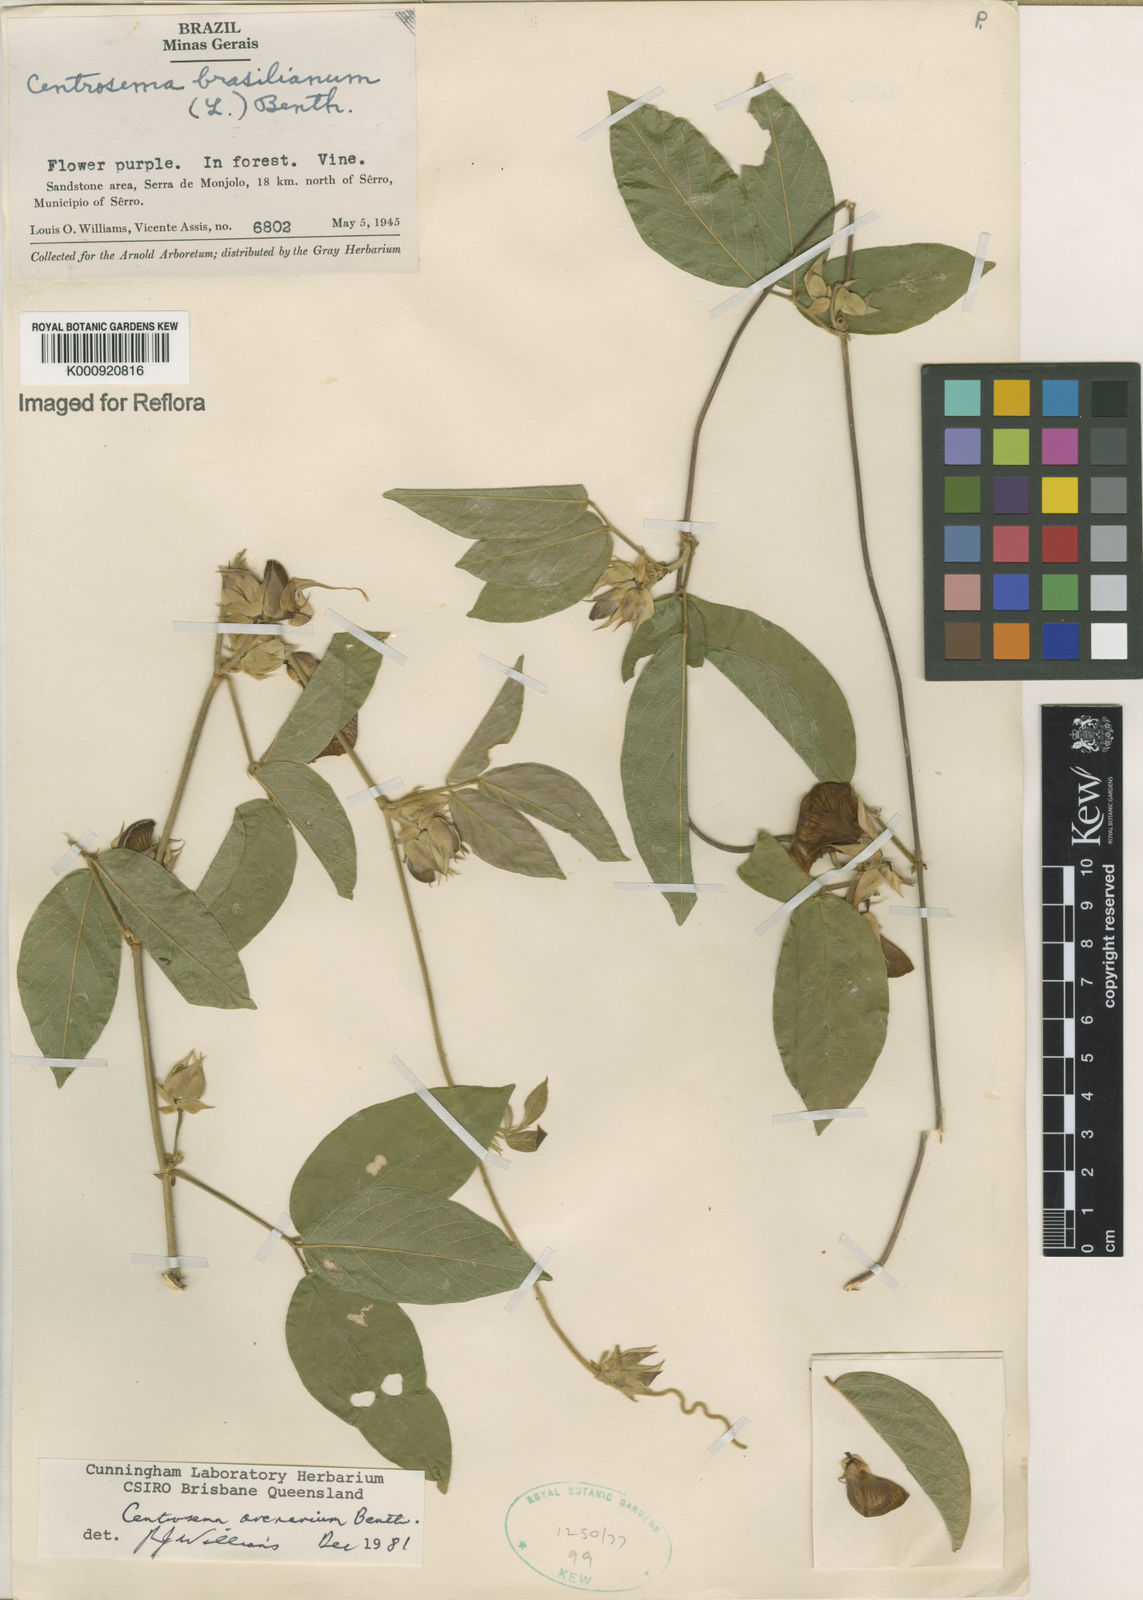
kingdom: Plantae
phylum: Tracheophyta
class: Magnoliopsida
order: Fabales
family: Fabaceae
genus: Centrosema
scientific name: Centrosema arenarium
